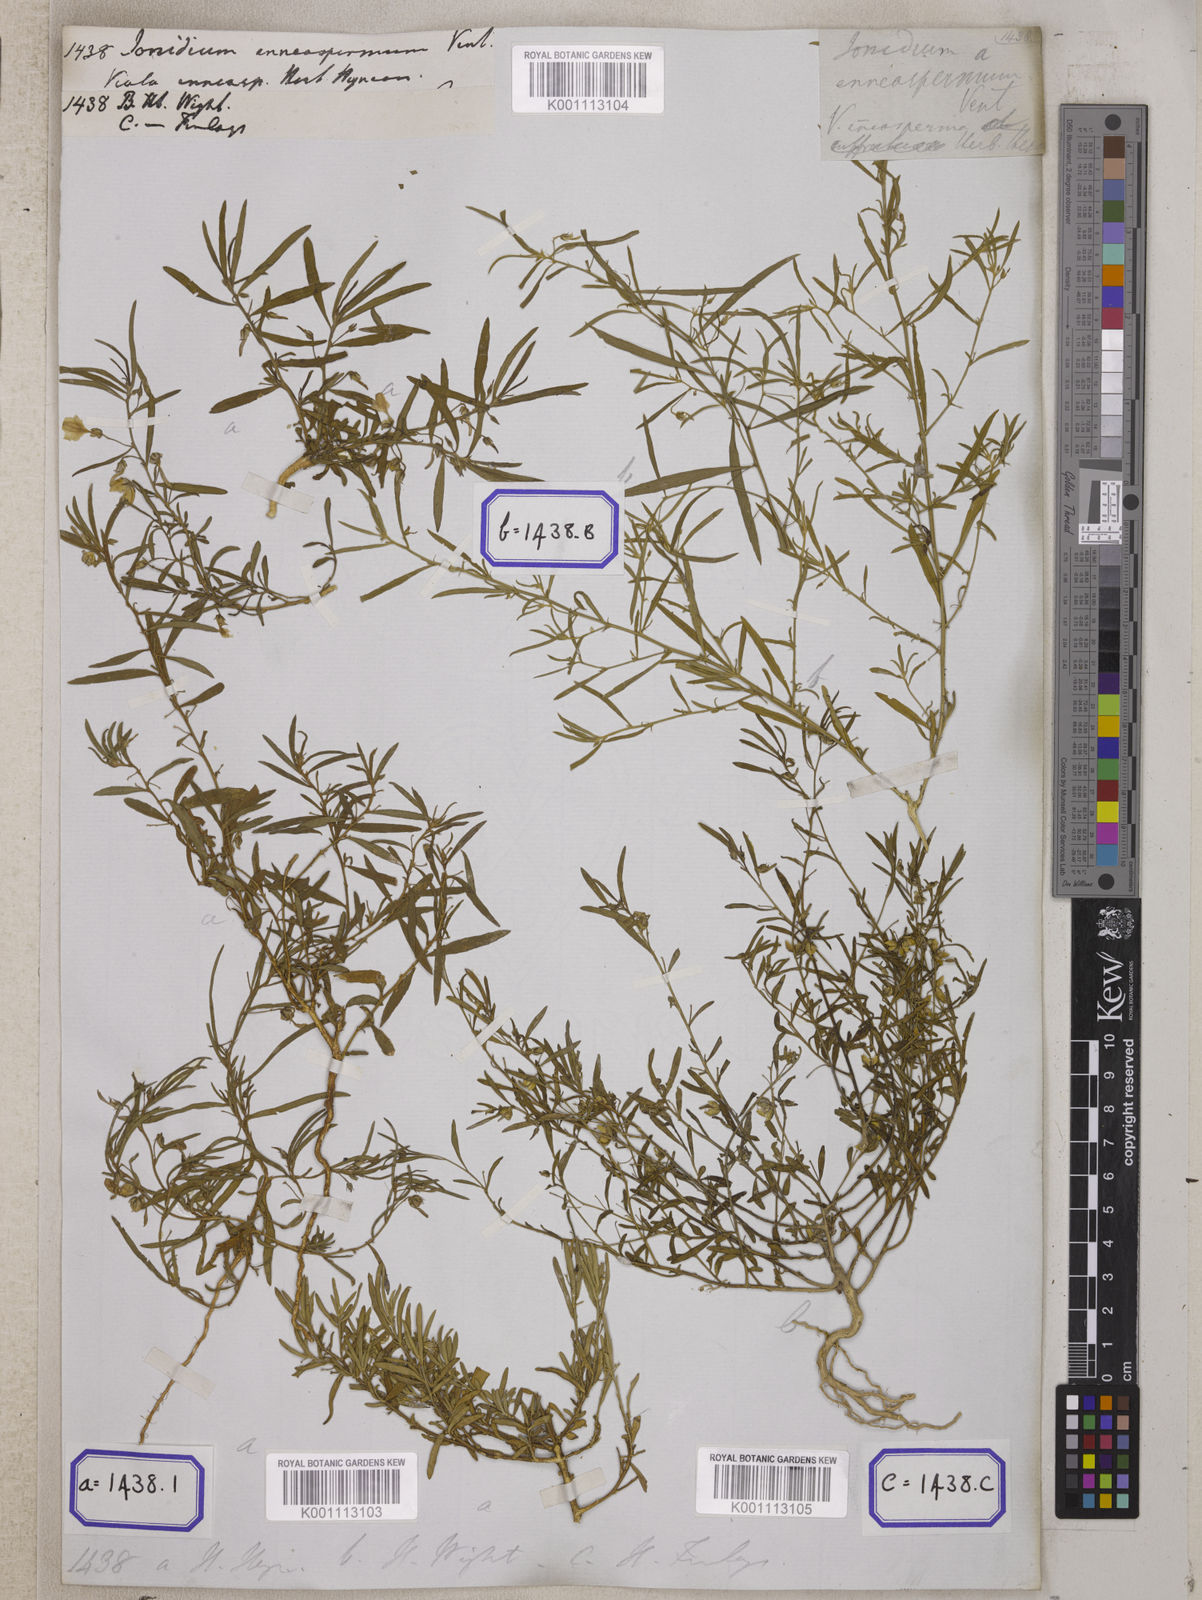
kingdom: Plantae
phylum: Tracheophyta
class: Magnoliopsida
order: Malpighiales
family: Violaceae
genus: Pigea
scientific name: Pigea enneasperma
